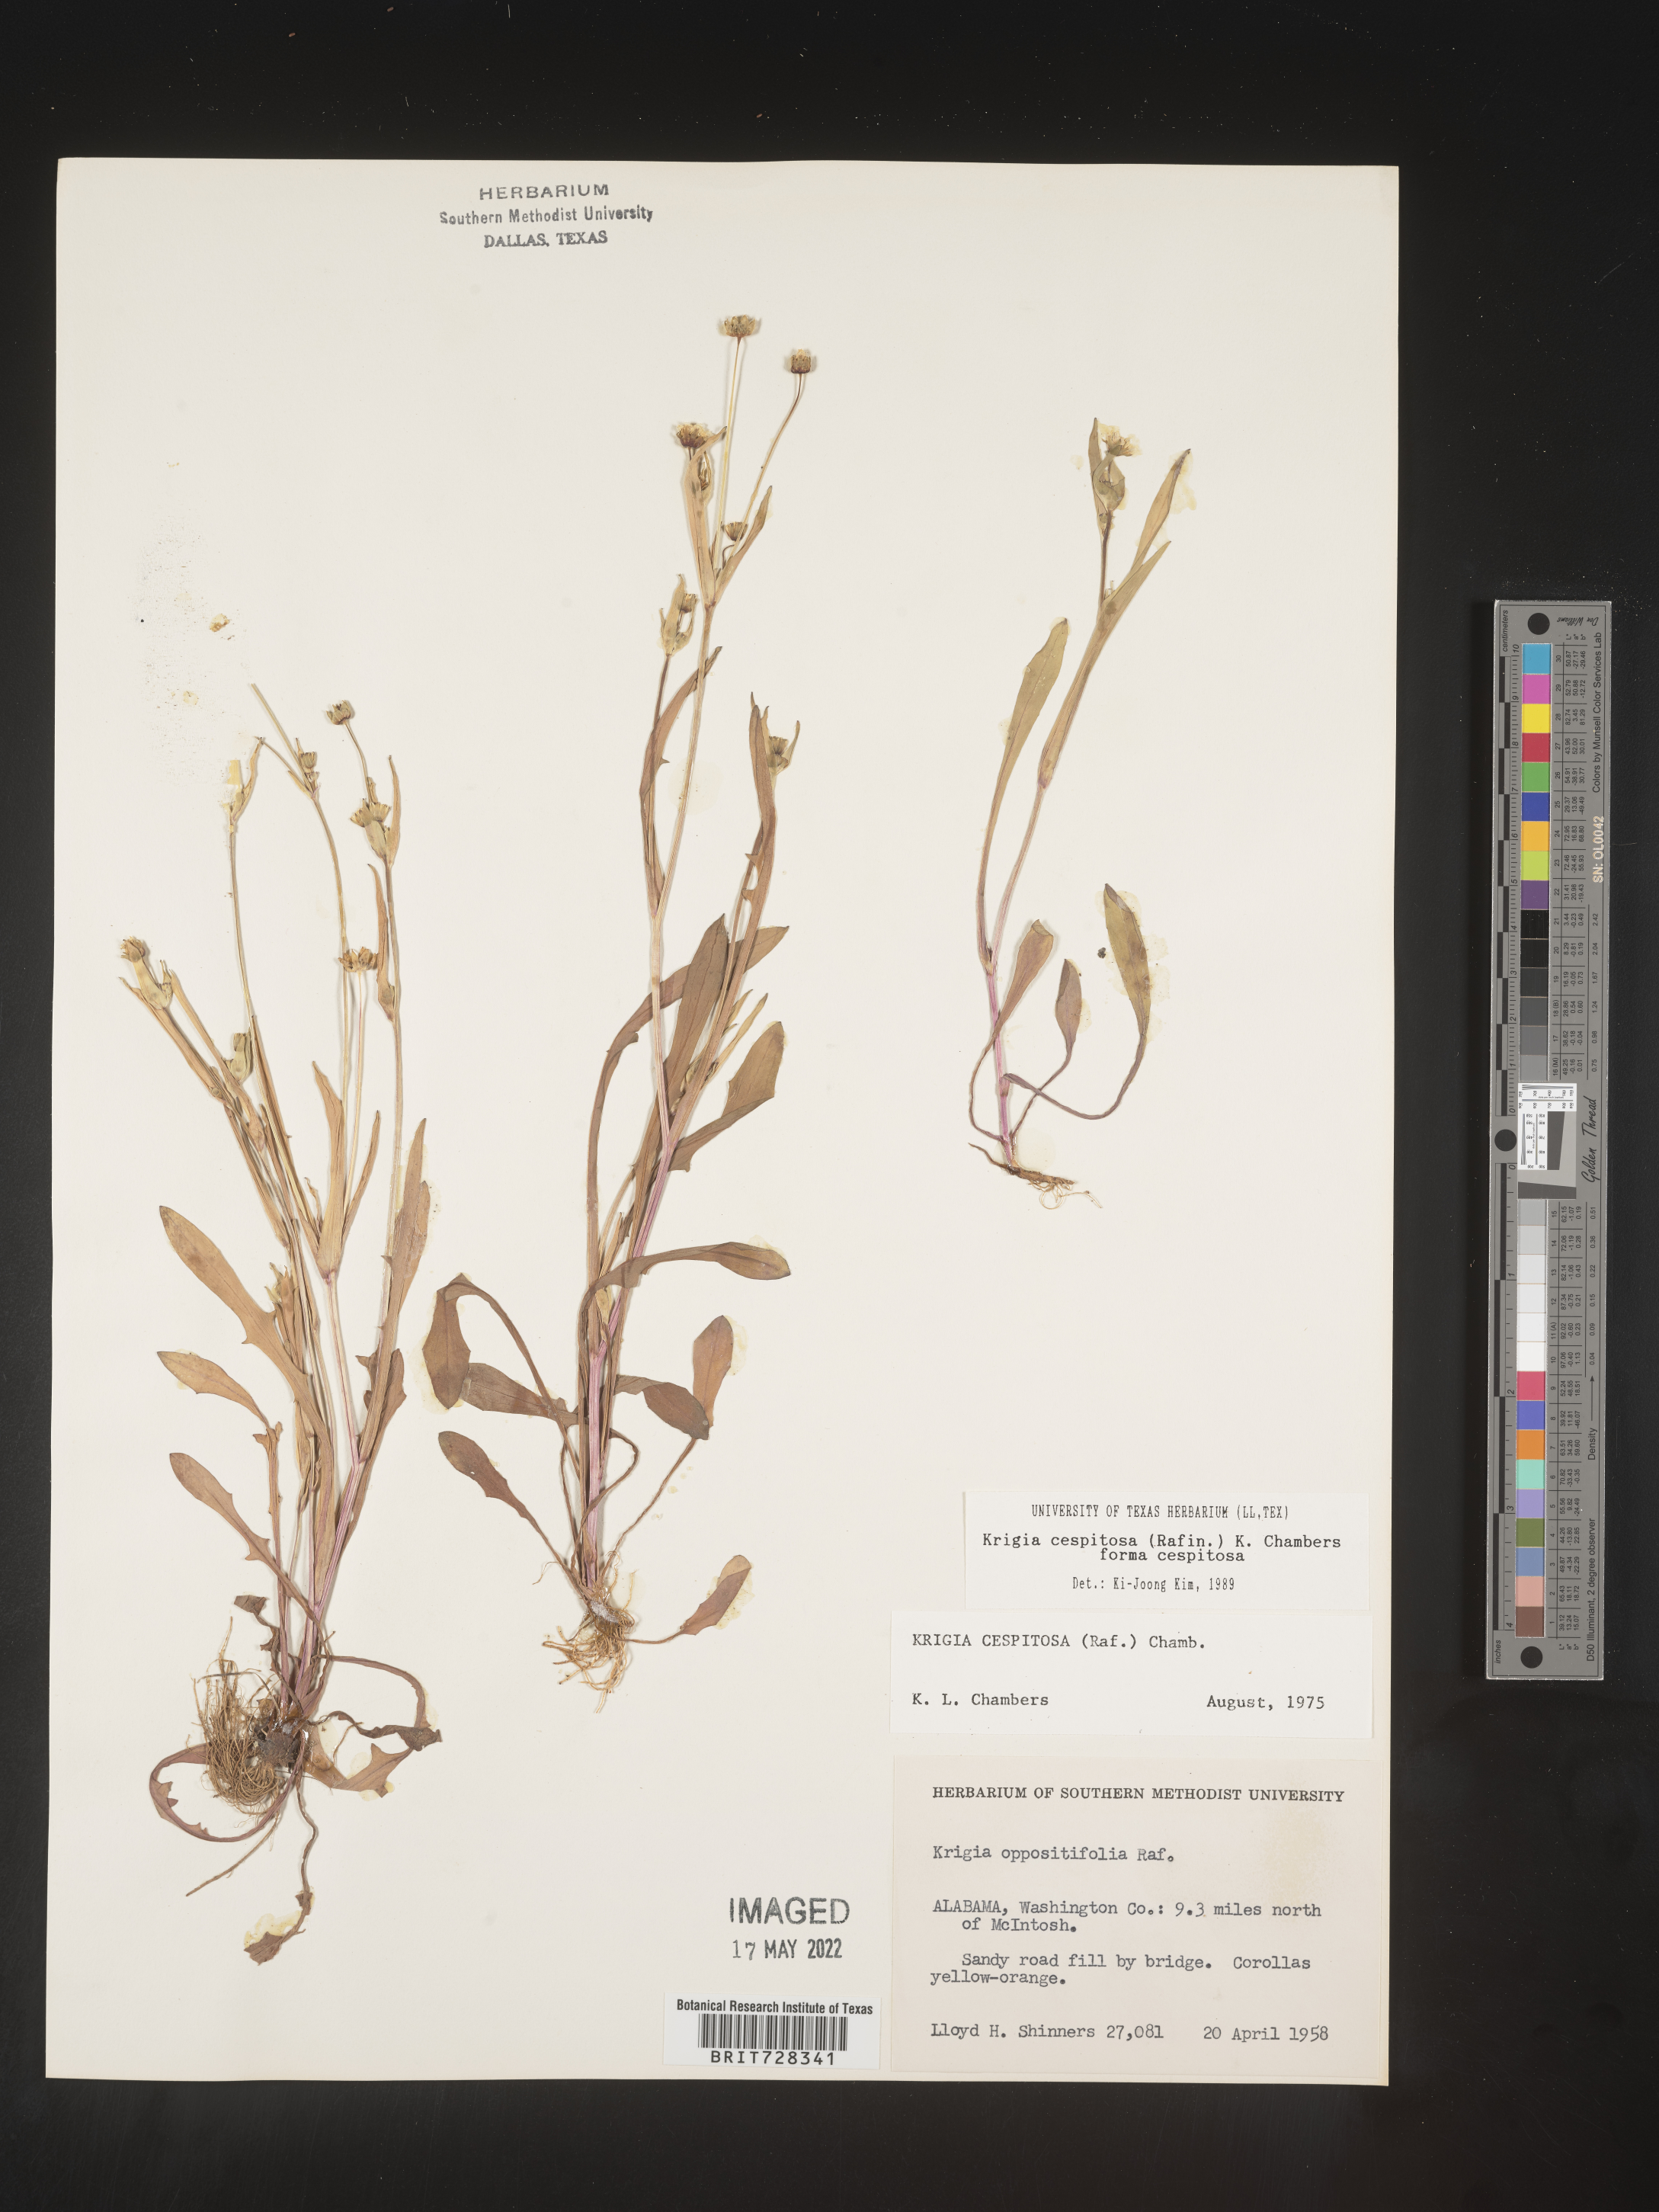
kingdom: Plantae
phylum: Tracheophyta
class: Magnoliopsida
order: Asterales
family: Asteraceae
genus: Krigia
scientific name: Krigia caespitosa
